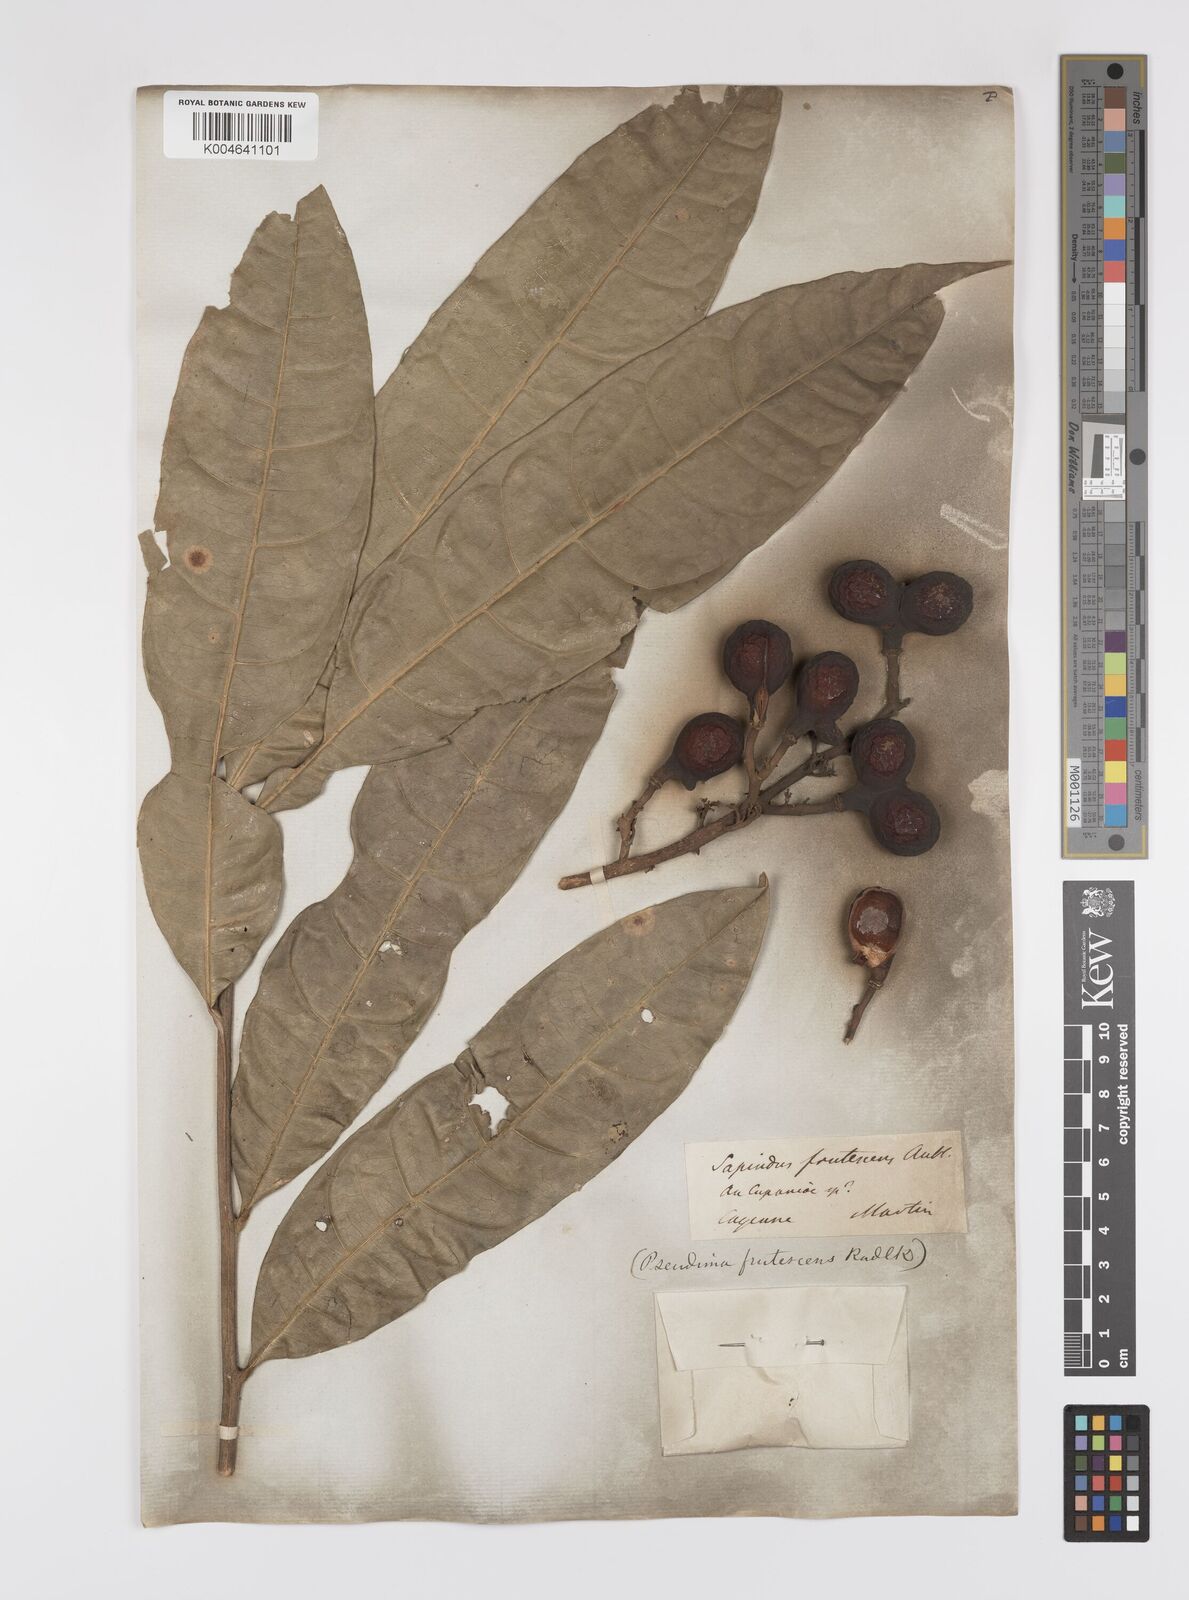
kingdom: Plantae
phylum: Tracheophyta
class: Magnoliopsida
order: Sapindales
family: Sapindaceae
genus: Pseudima
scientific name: Pseudima frutescens
